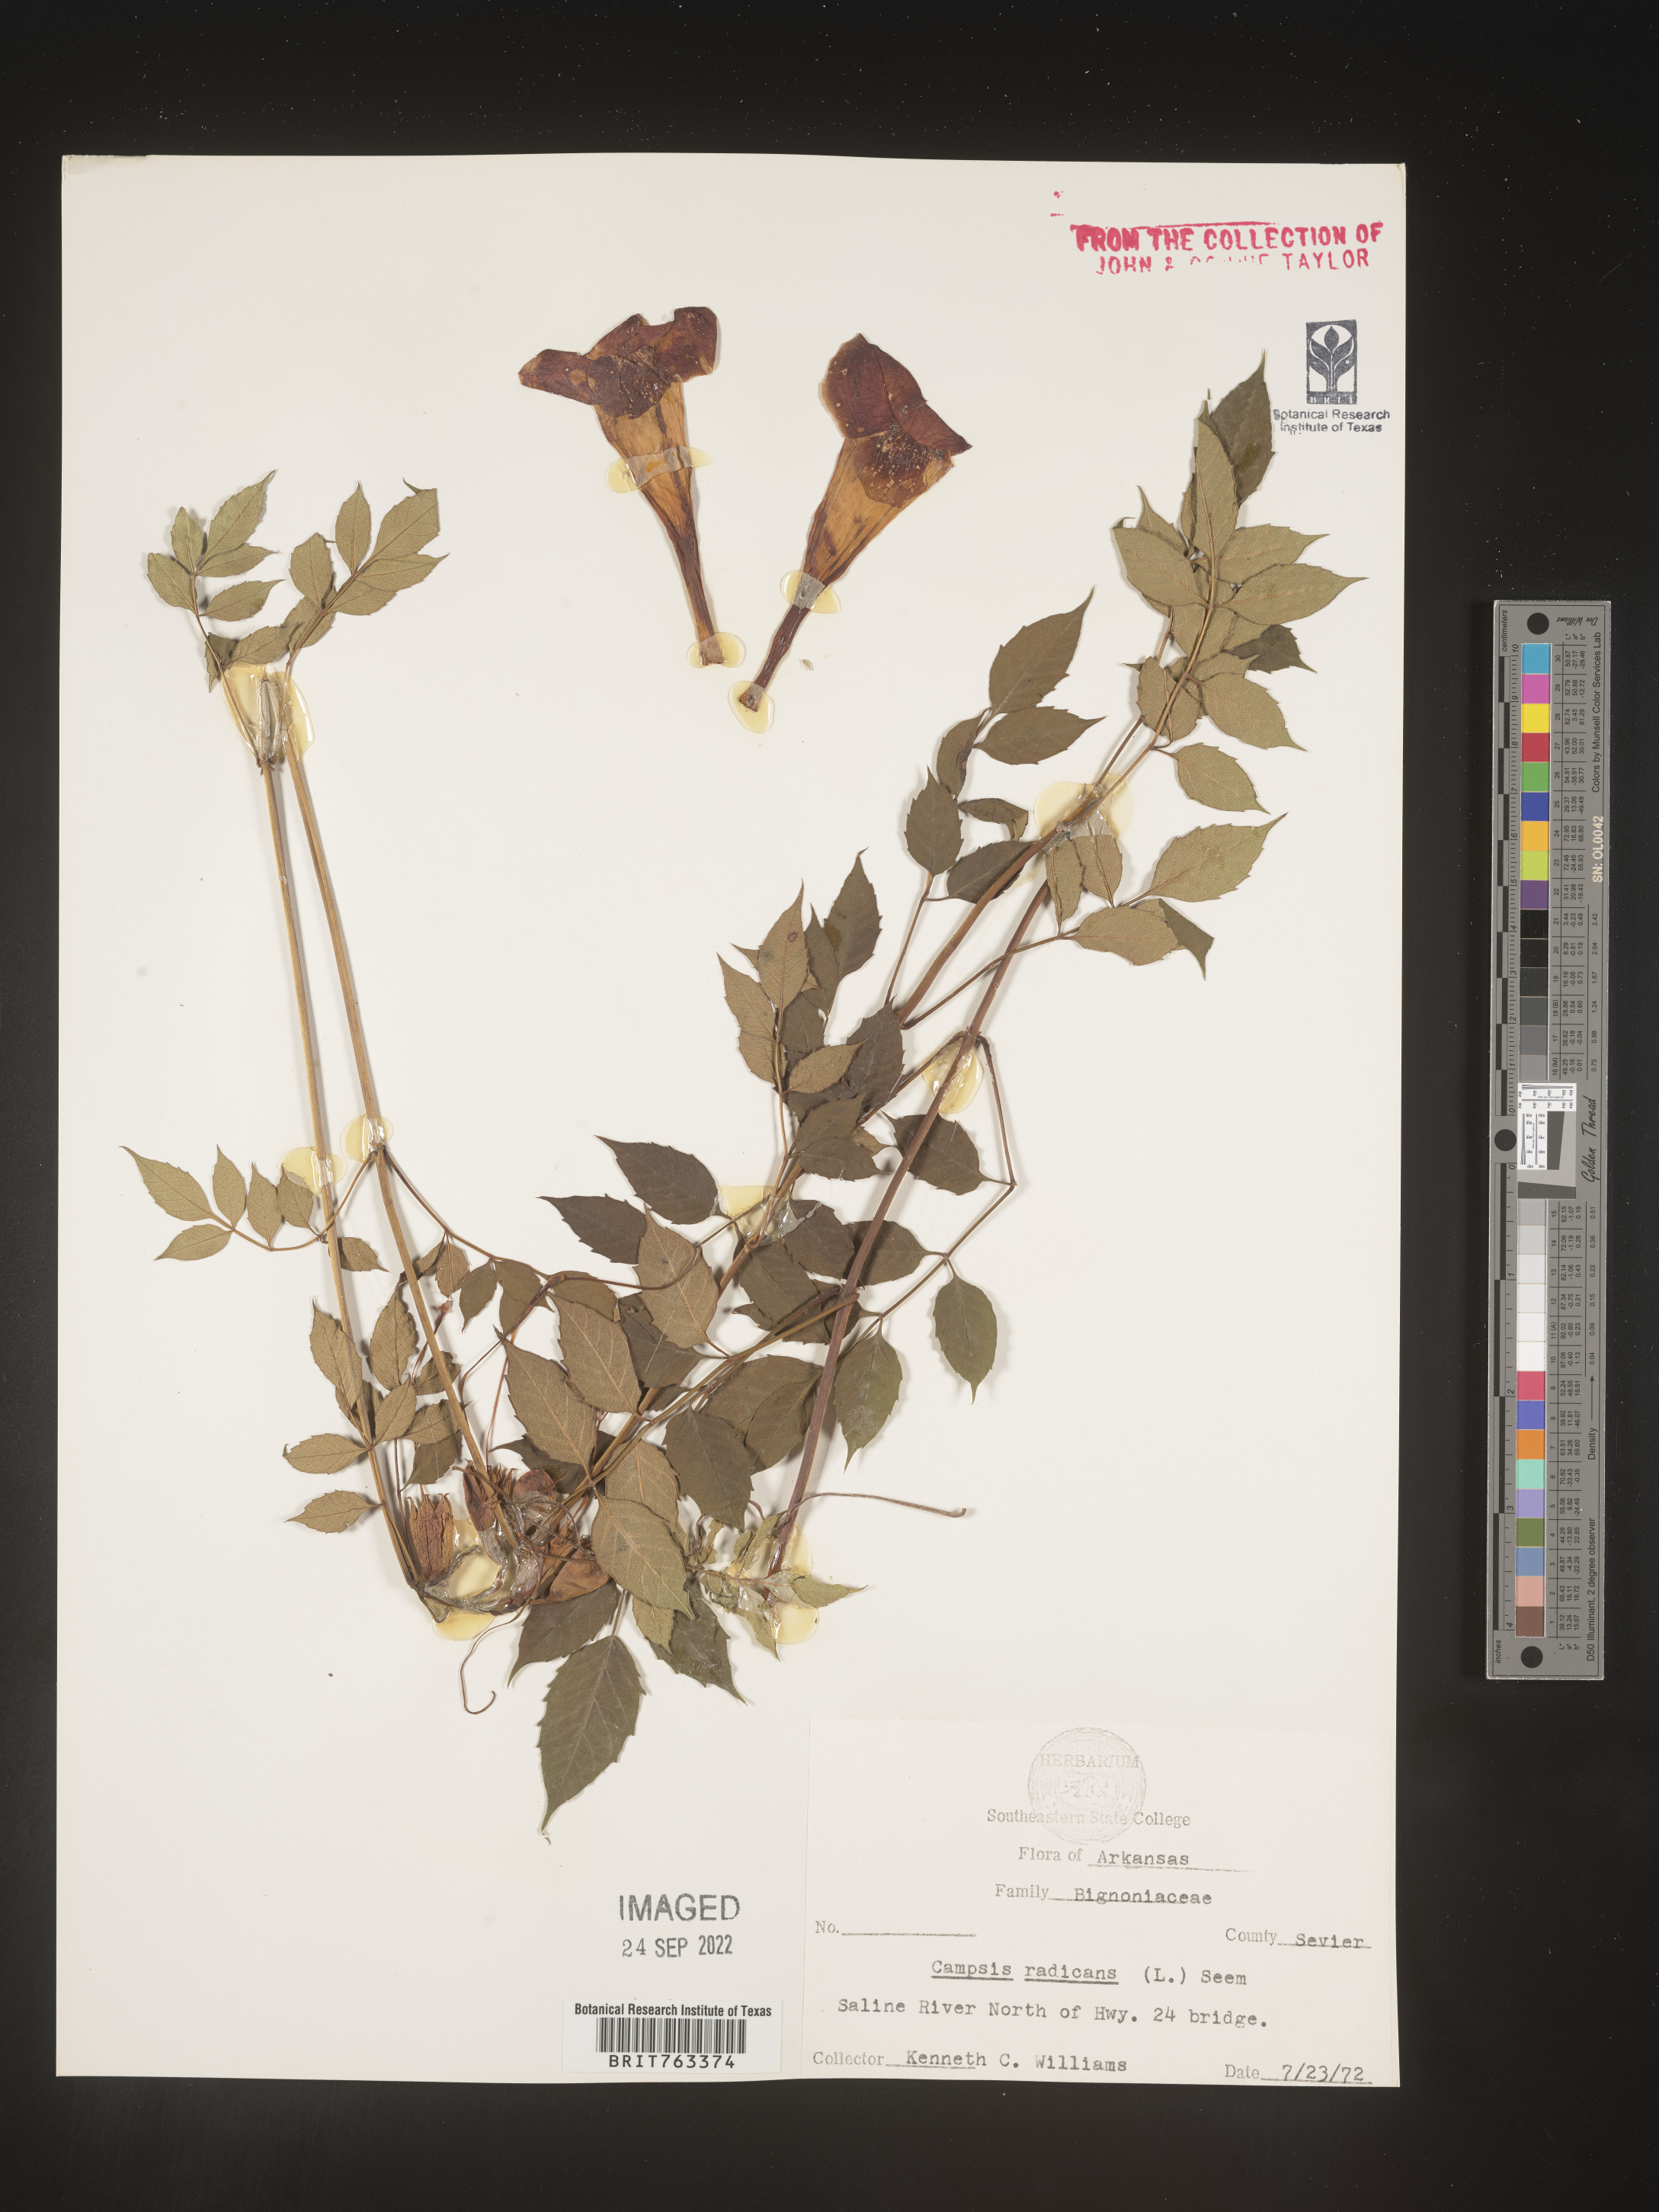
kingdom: Plantae
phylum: Tracheophyta
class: Magnoliopsida
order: Lamiales
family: Bignoniaceae
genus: Campsis
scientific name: Campsis radicans
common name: Trumpet-creeper
